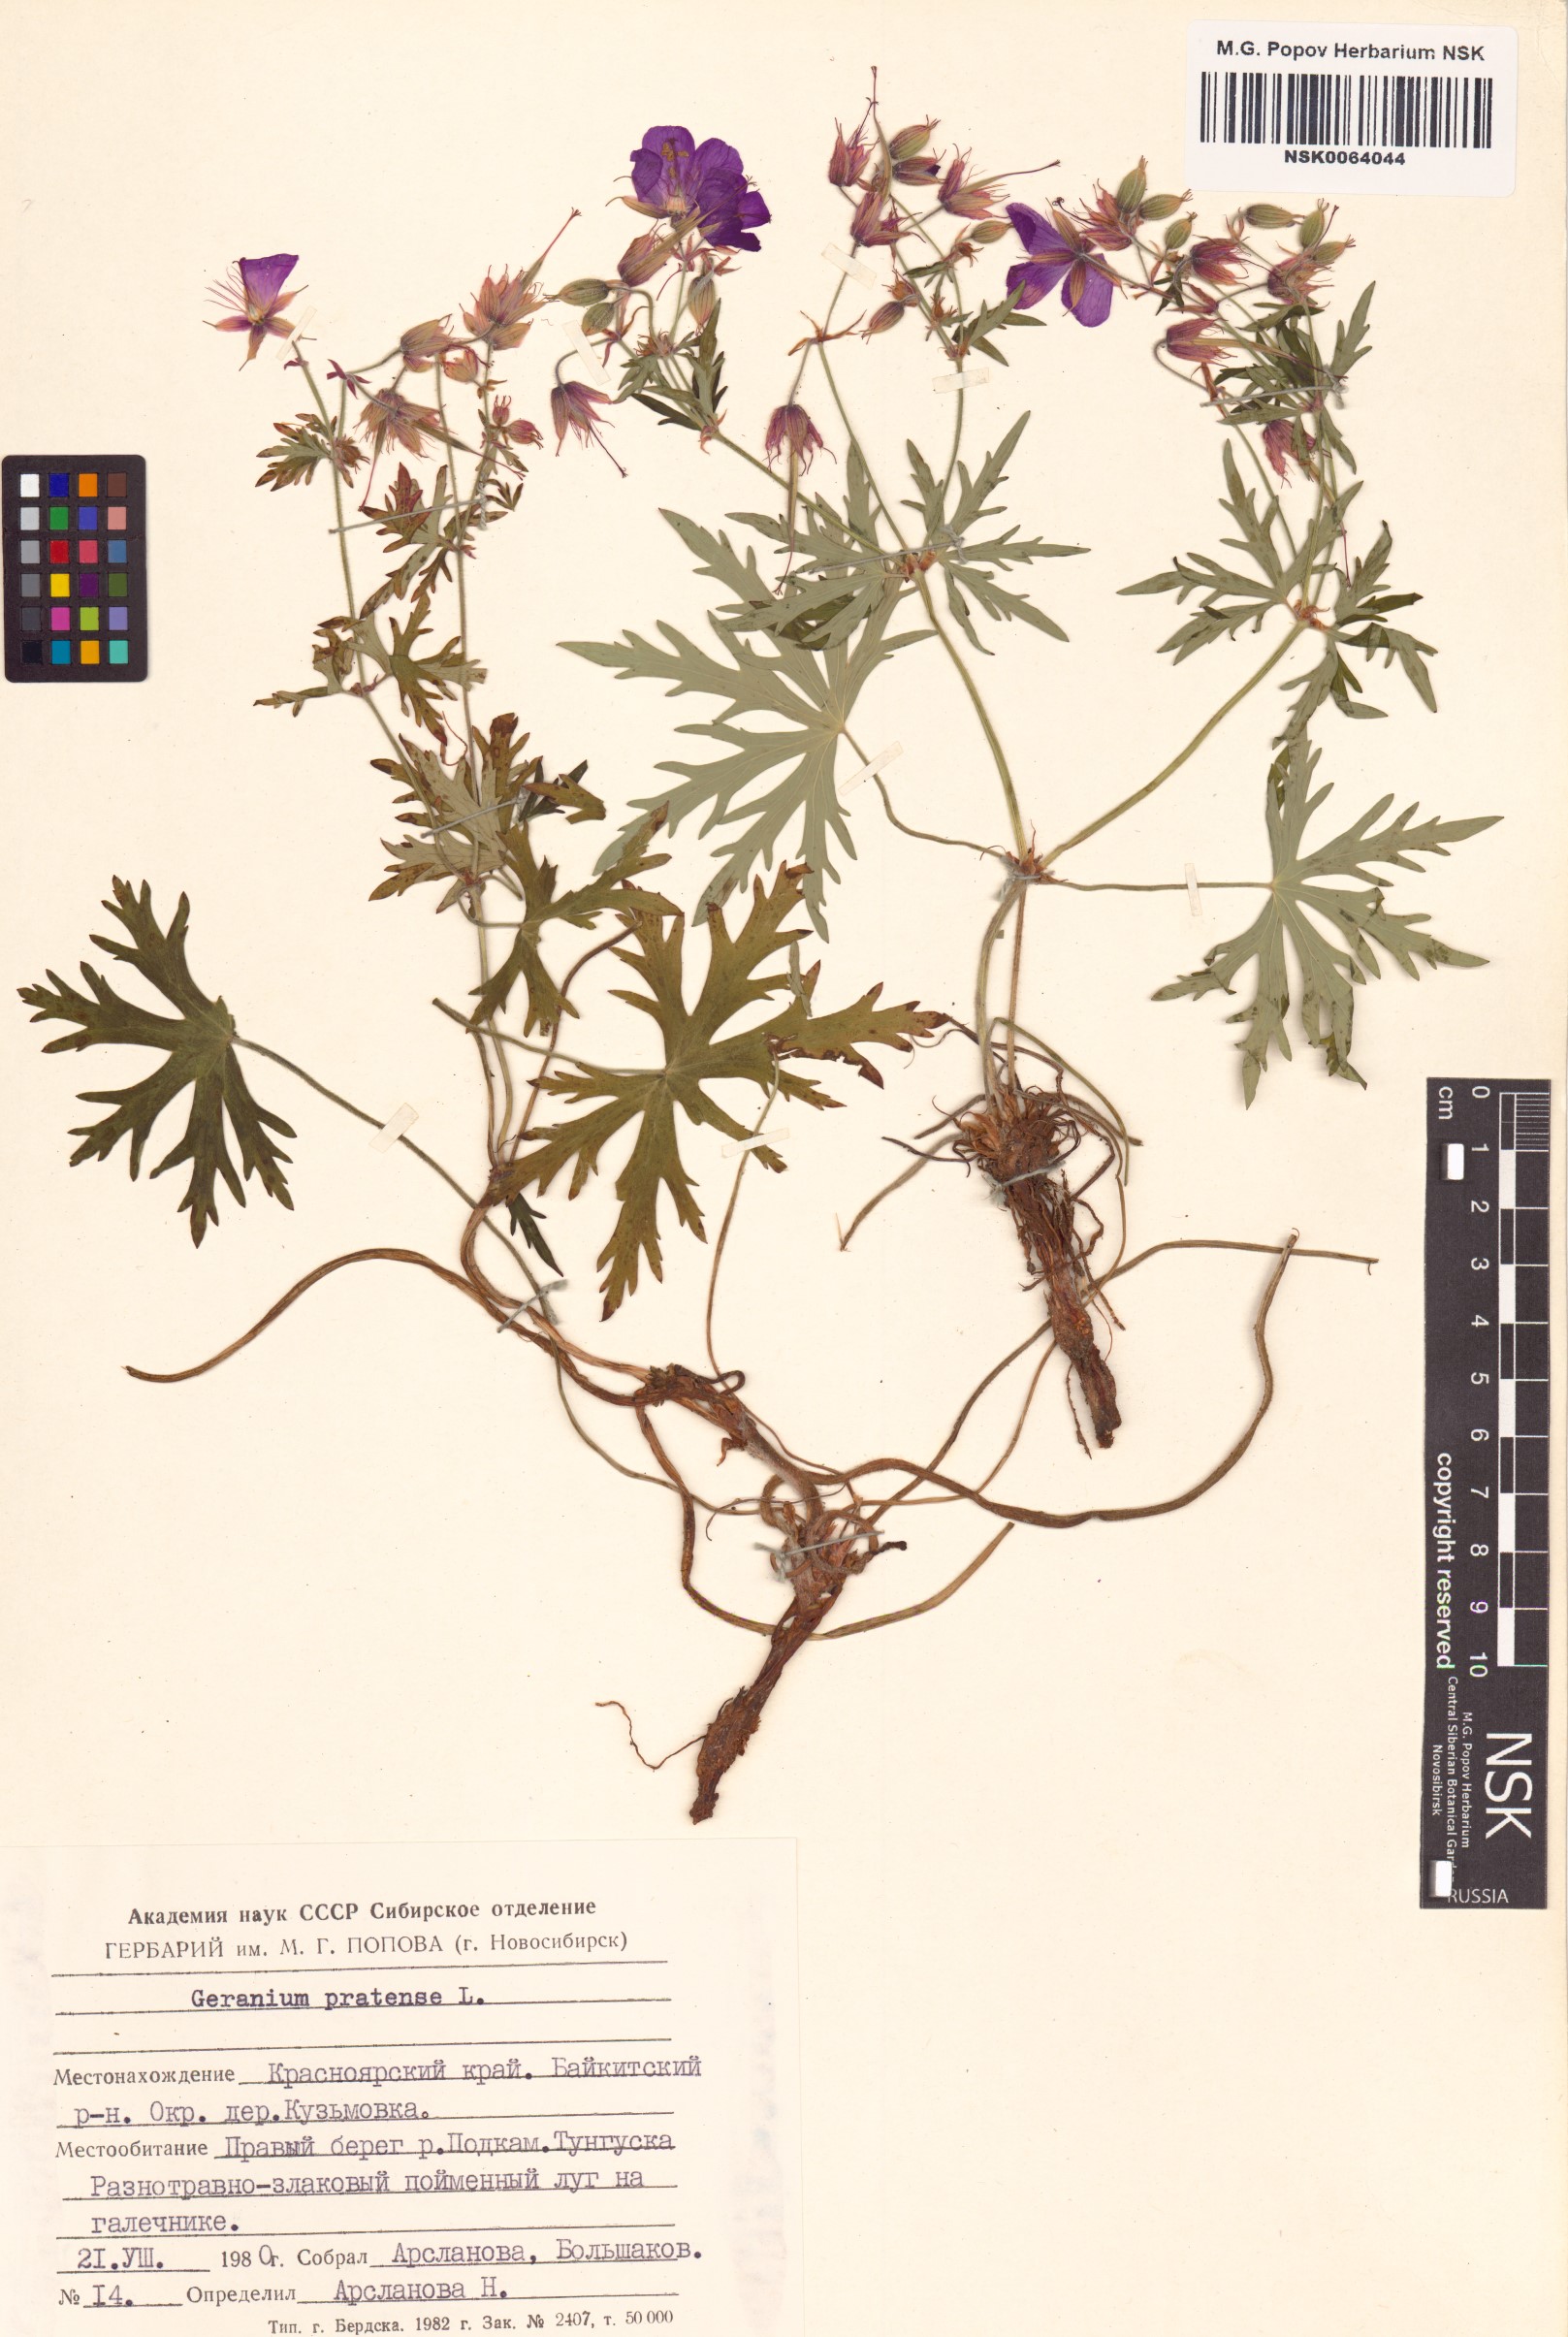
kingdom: Plantae
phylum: Tracheophyta
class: Magnoliopsida
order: Geraniales
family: Geraniaceae
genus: Geranium
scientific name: Geranium pratense
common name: Meadow crane's-bill
